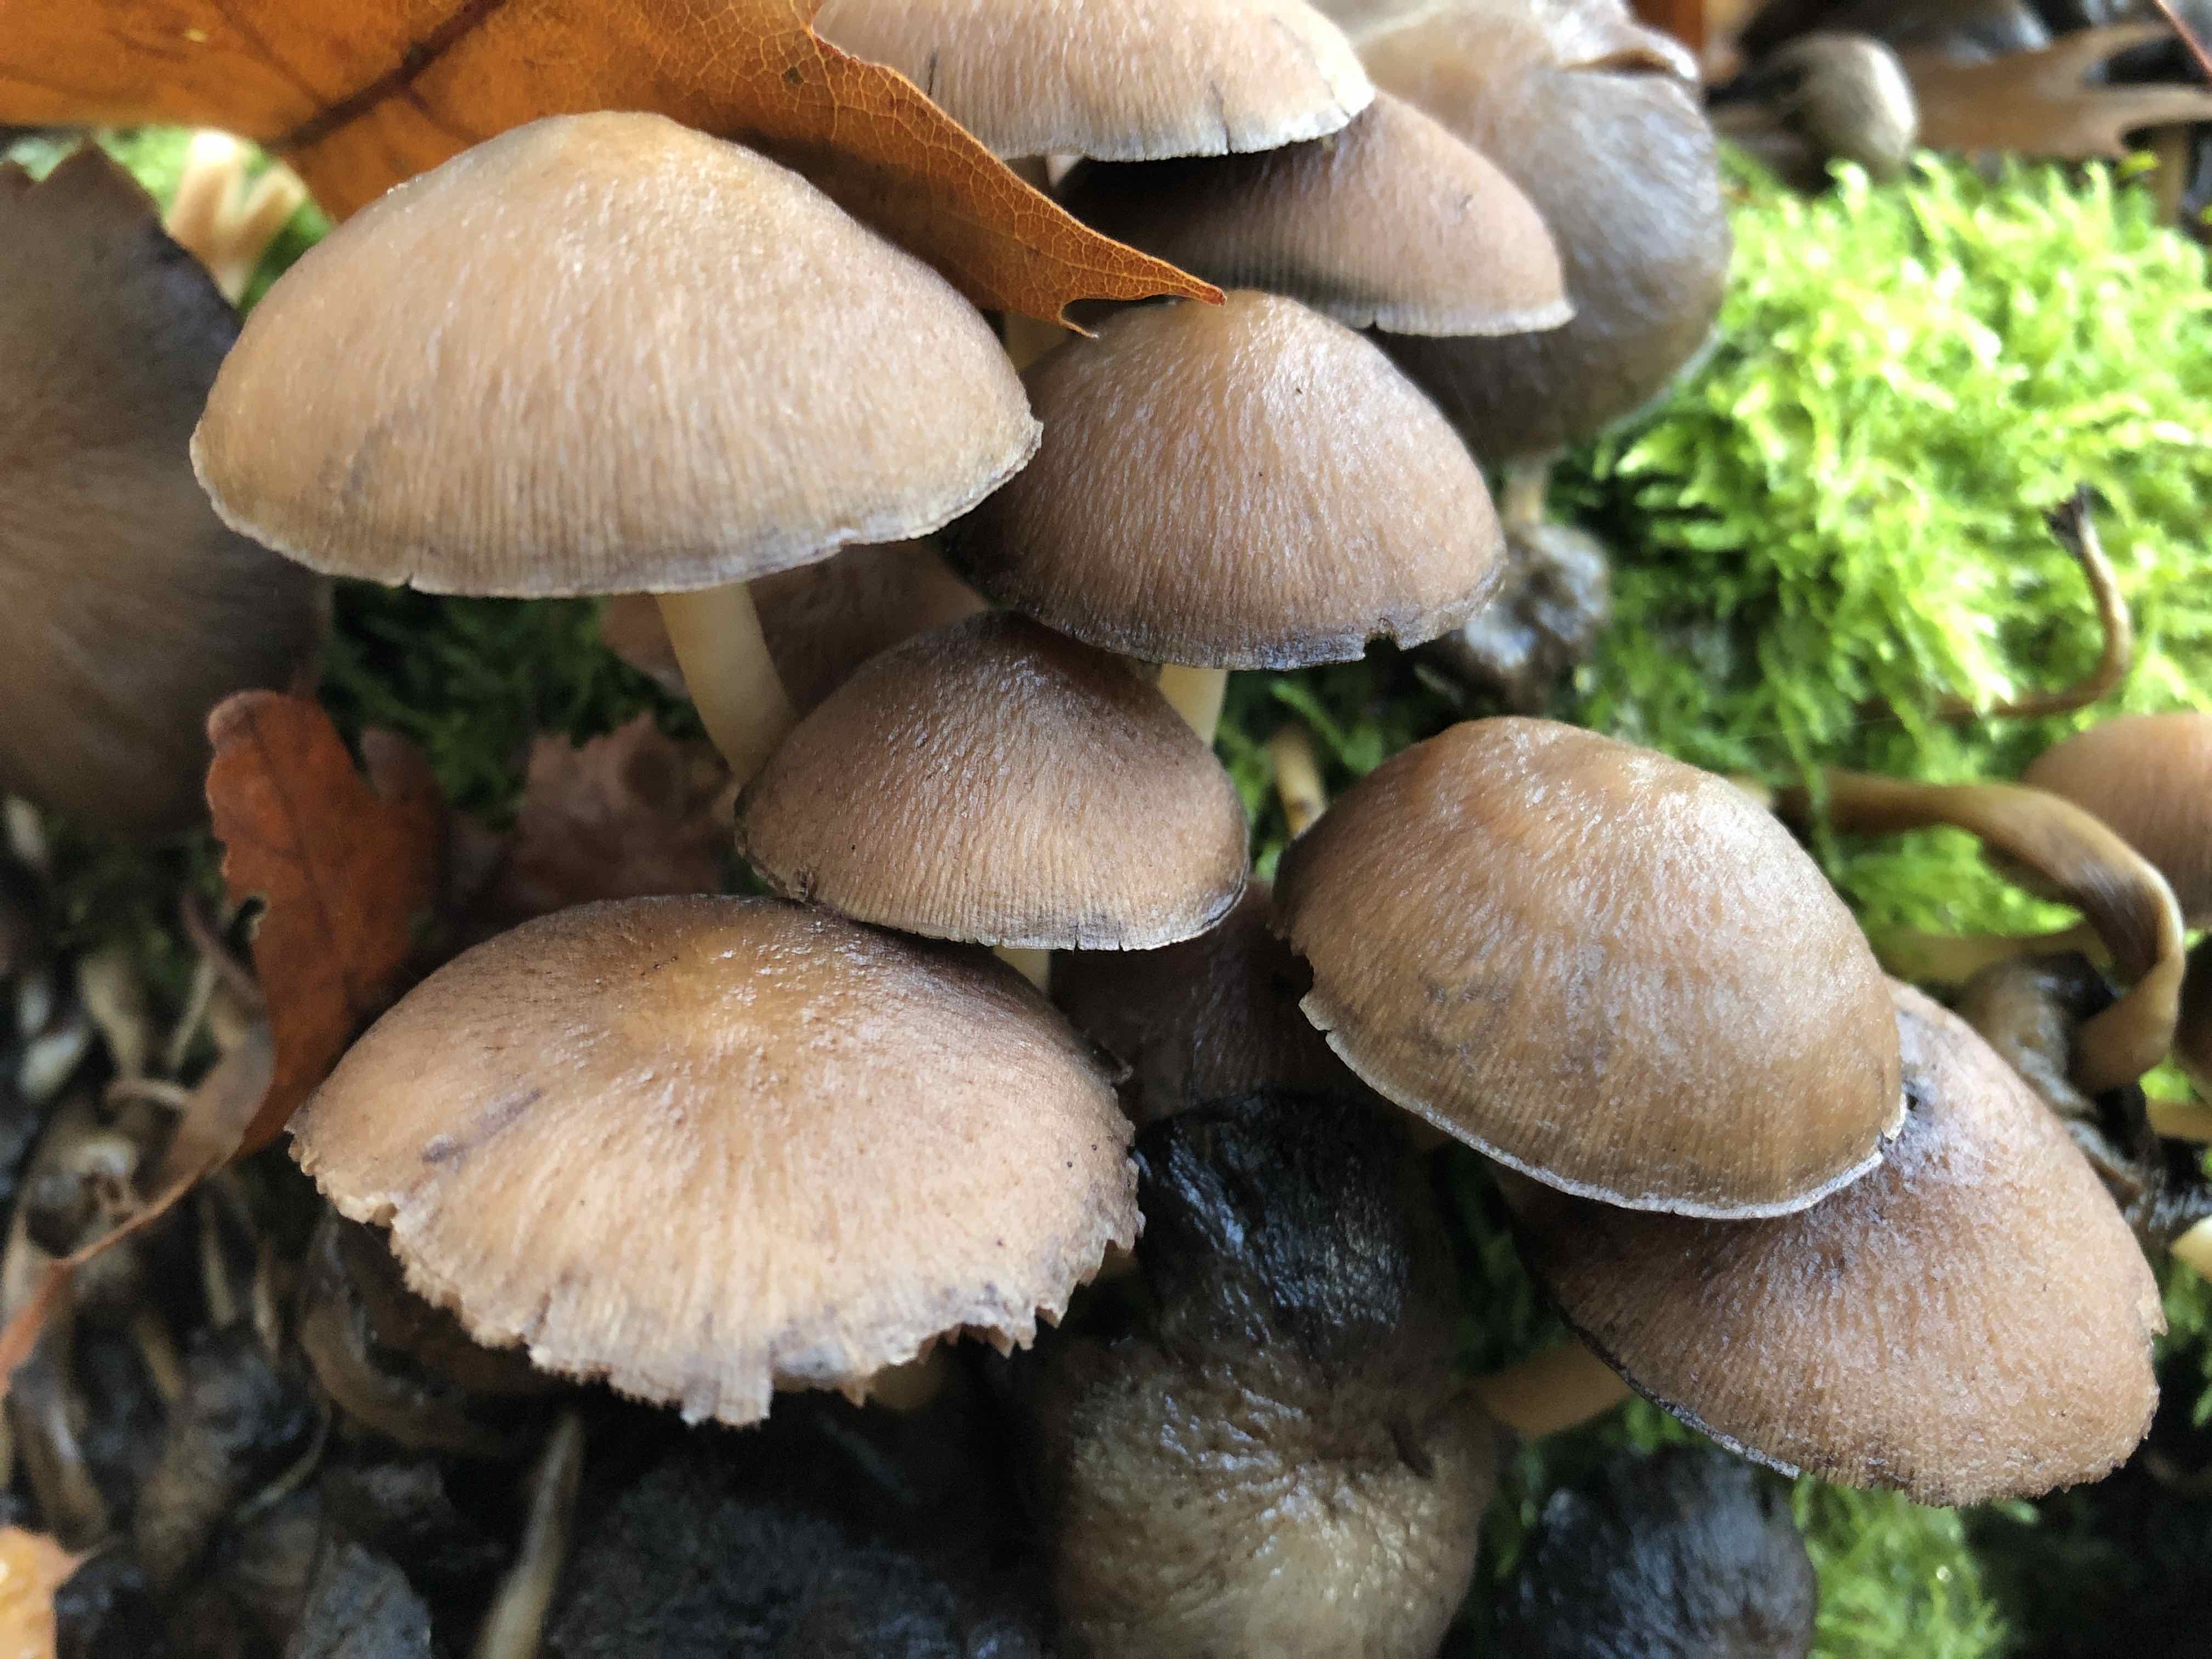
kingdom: Fungi
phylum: Basidiomycota
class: Agaricomycetes
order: Agaricales
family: Psathyrellaceae
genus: Psathyrella
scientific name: Psathyrella piluliformis
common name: lysstokket mørkhat
